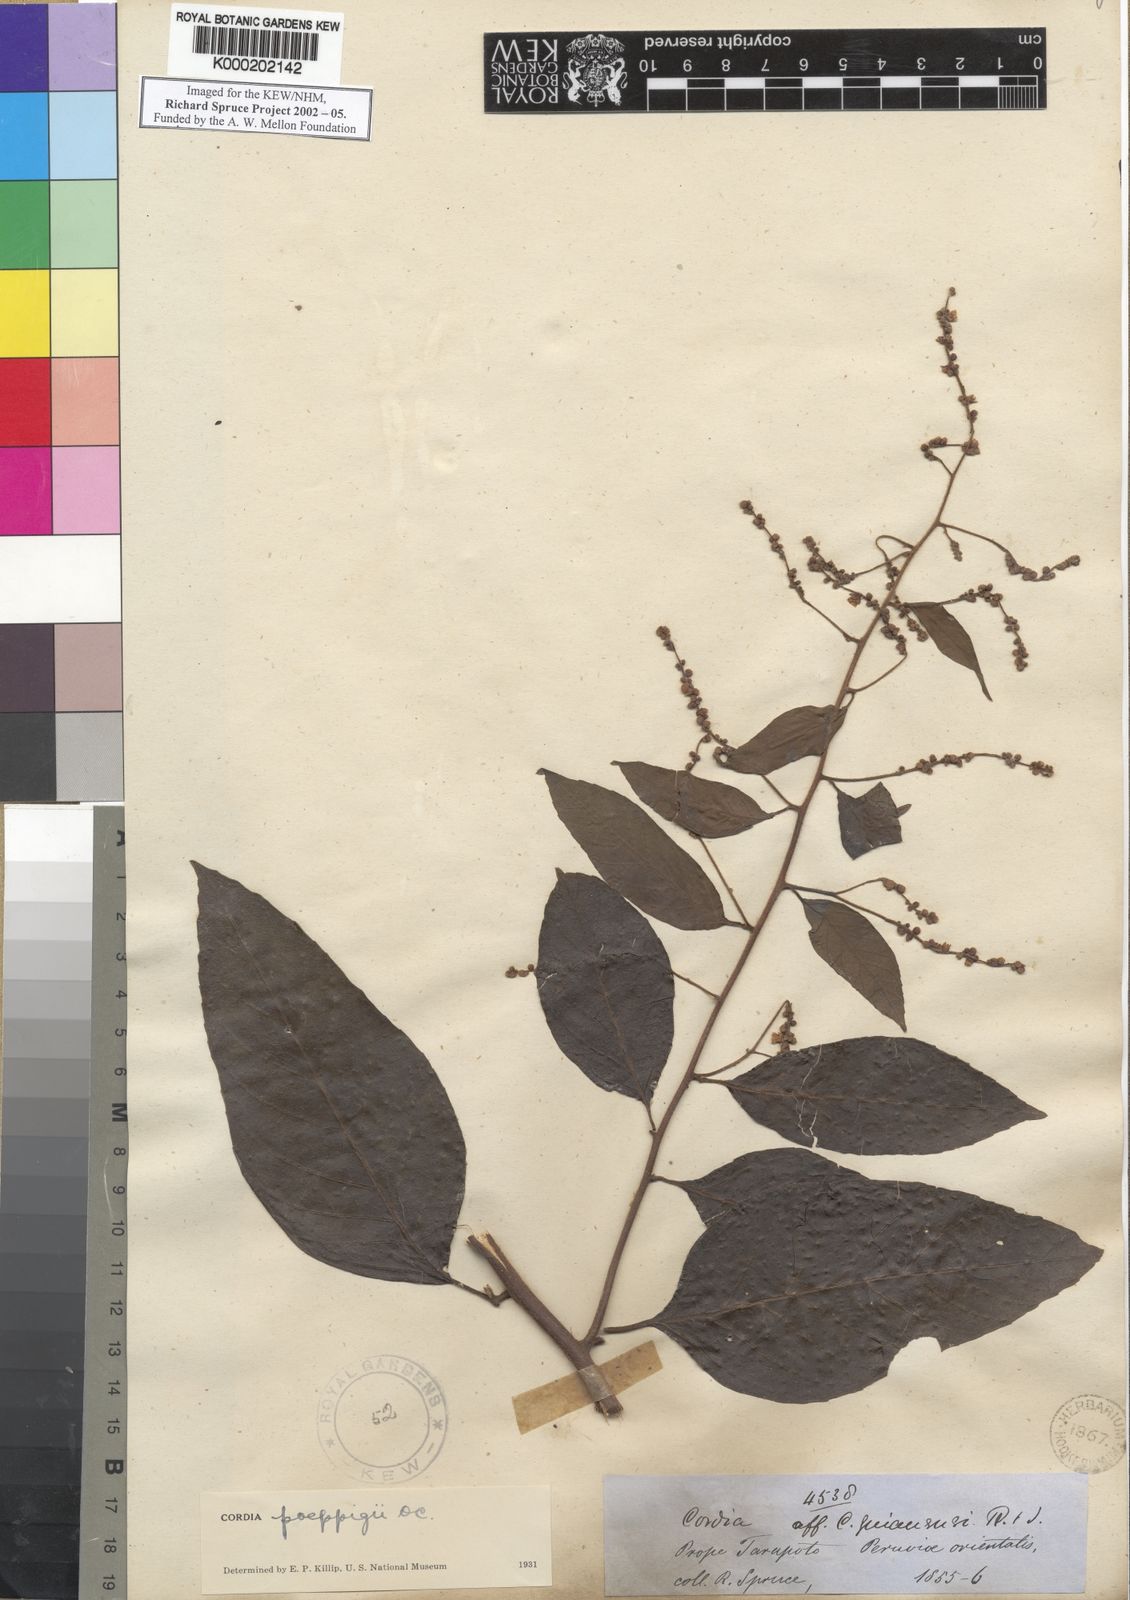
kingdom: Plantae
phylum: Tracheophyta
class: Magnoliopsida
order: Boraginales
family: Cordiaceae
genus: Varronia
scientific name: Varronia spinescens
